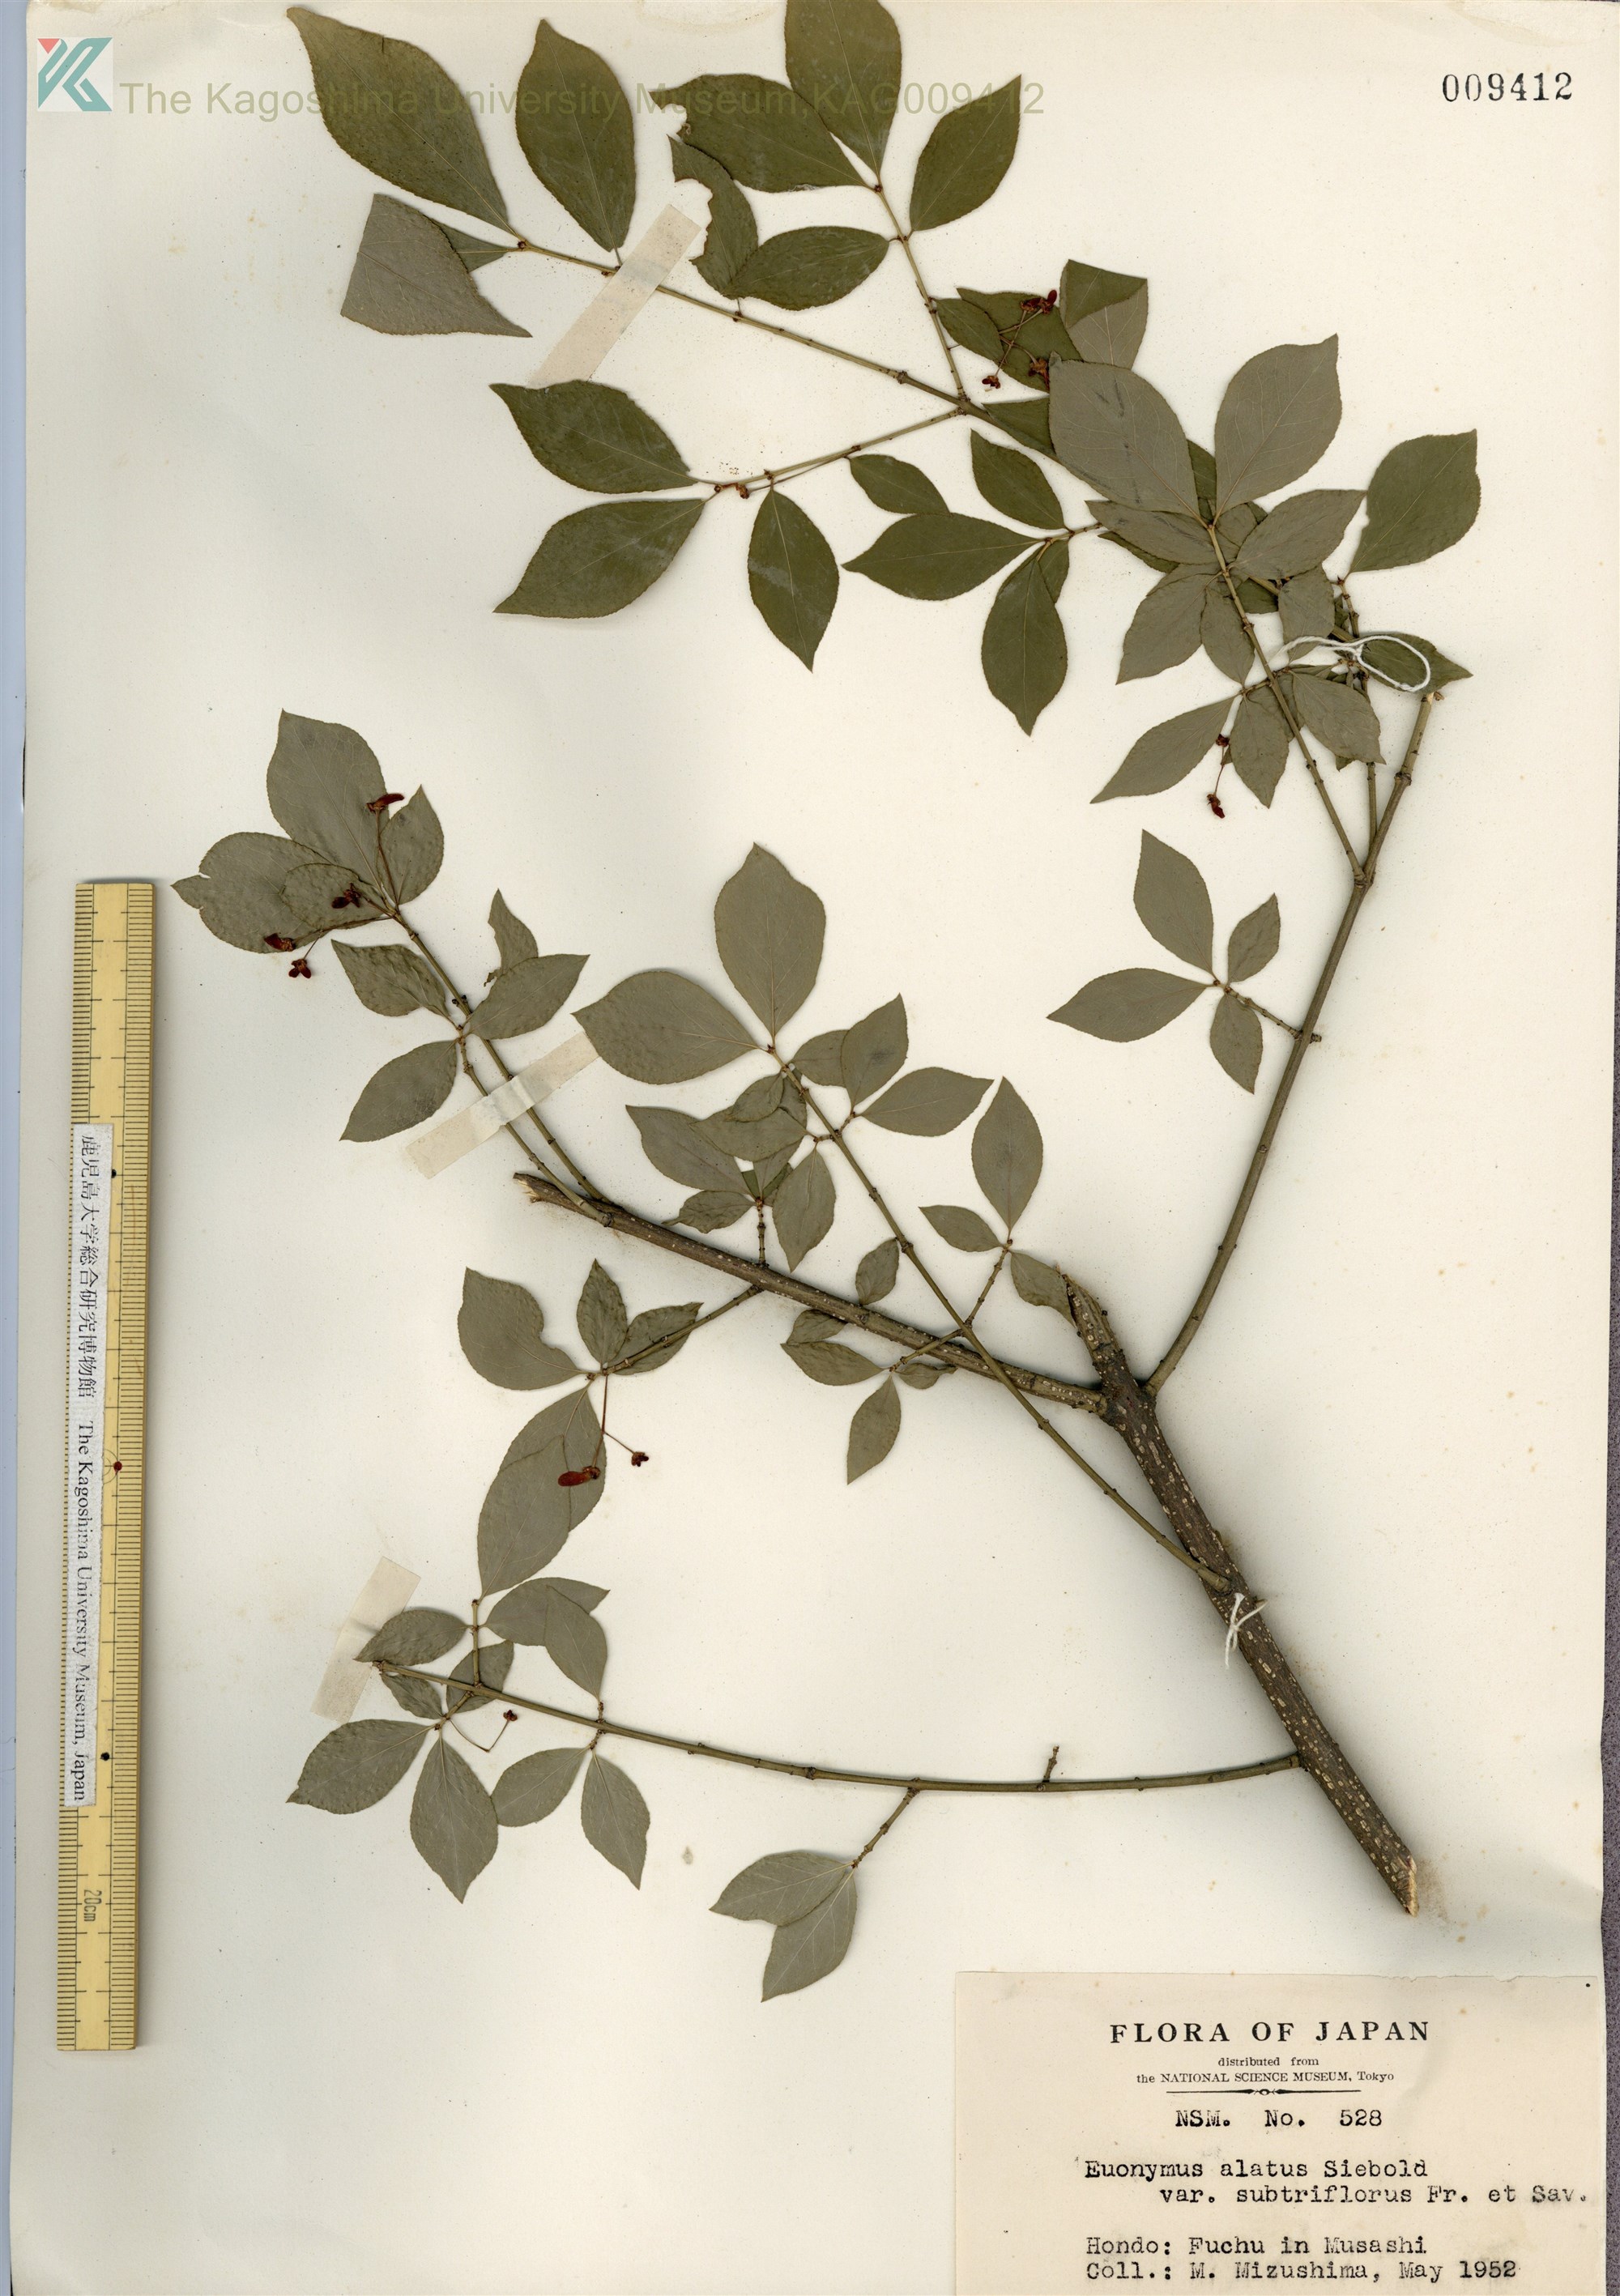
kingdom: Plantae
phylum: Tracheophyta
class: Magnoliopsida
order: Celastrales
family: Celastraceae
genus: Euonymus
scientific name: Euonymus alatus
